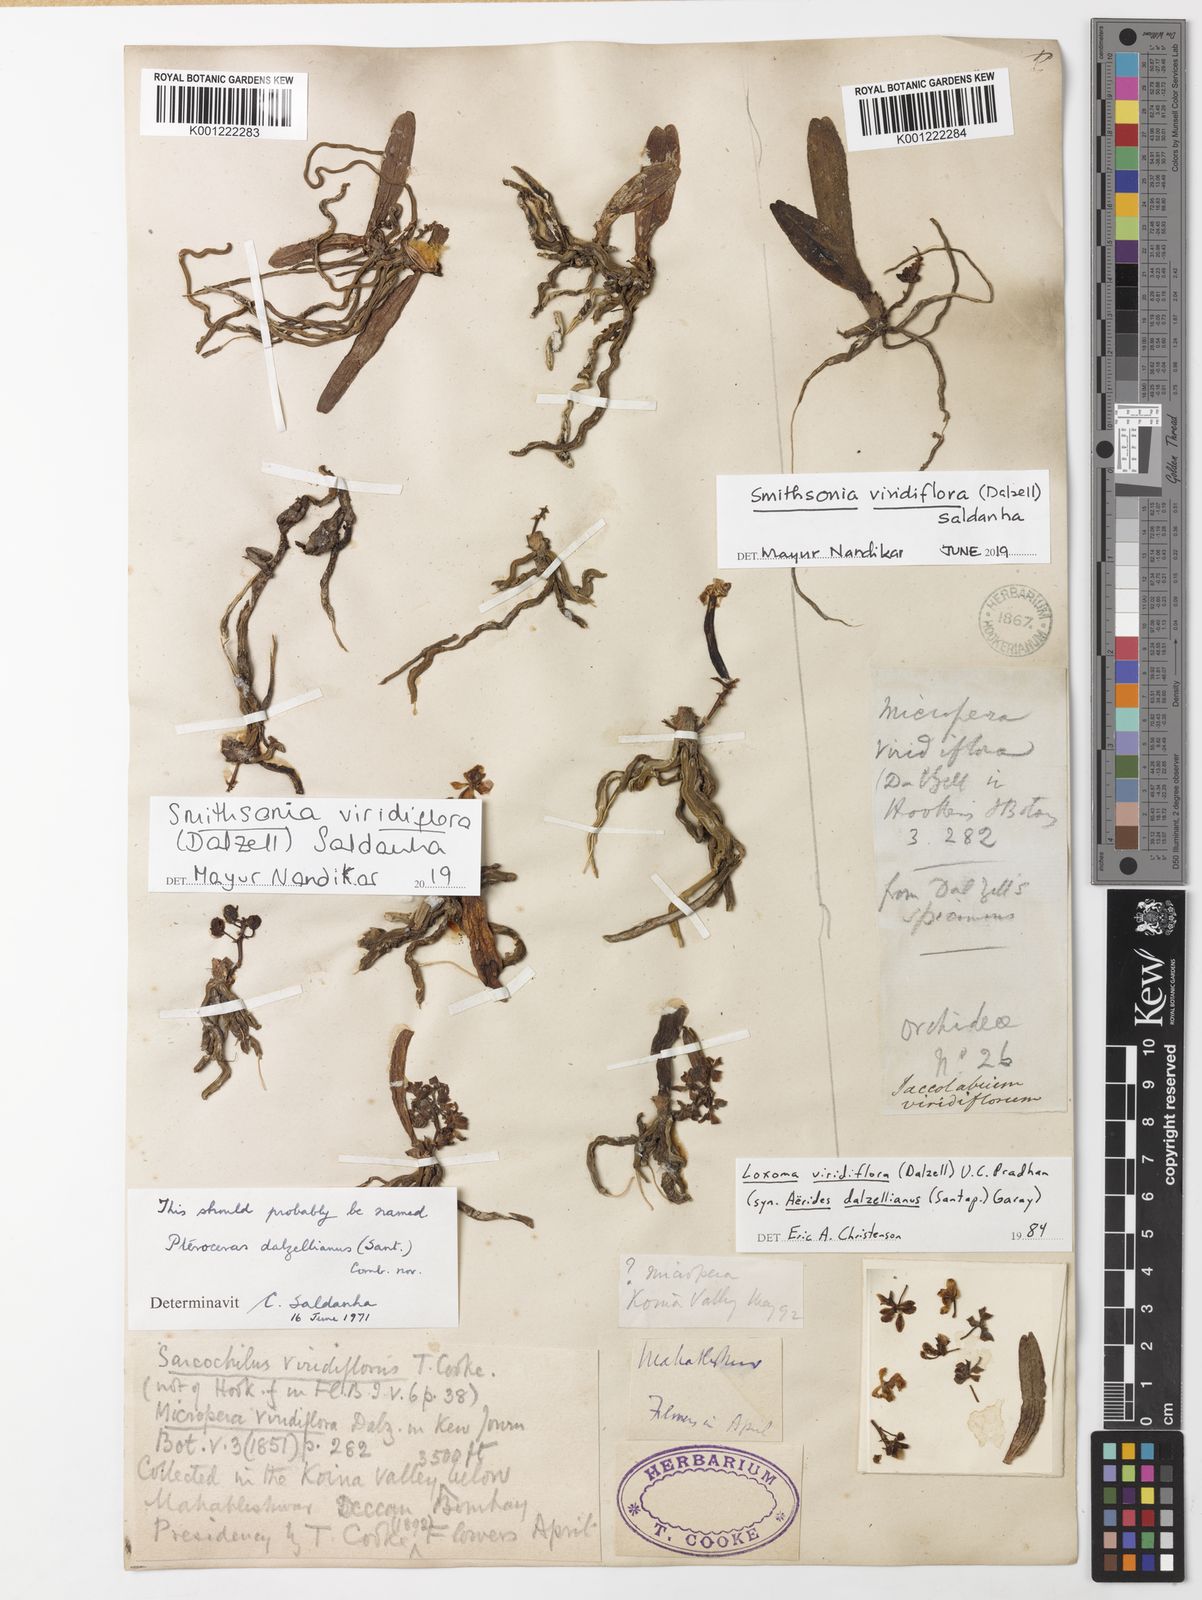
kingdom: Plantae
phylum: Tracheophyta
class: Liliopsida
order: Asparagales
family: Orchidaceae
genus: Smithsonia
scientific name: Smithsonia viridiflora
